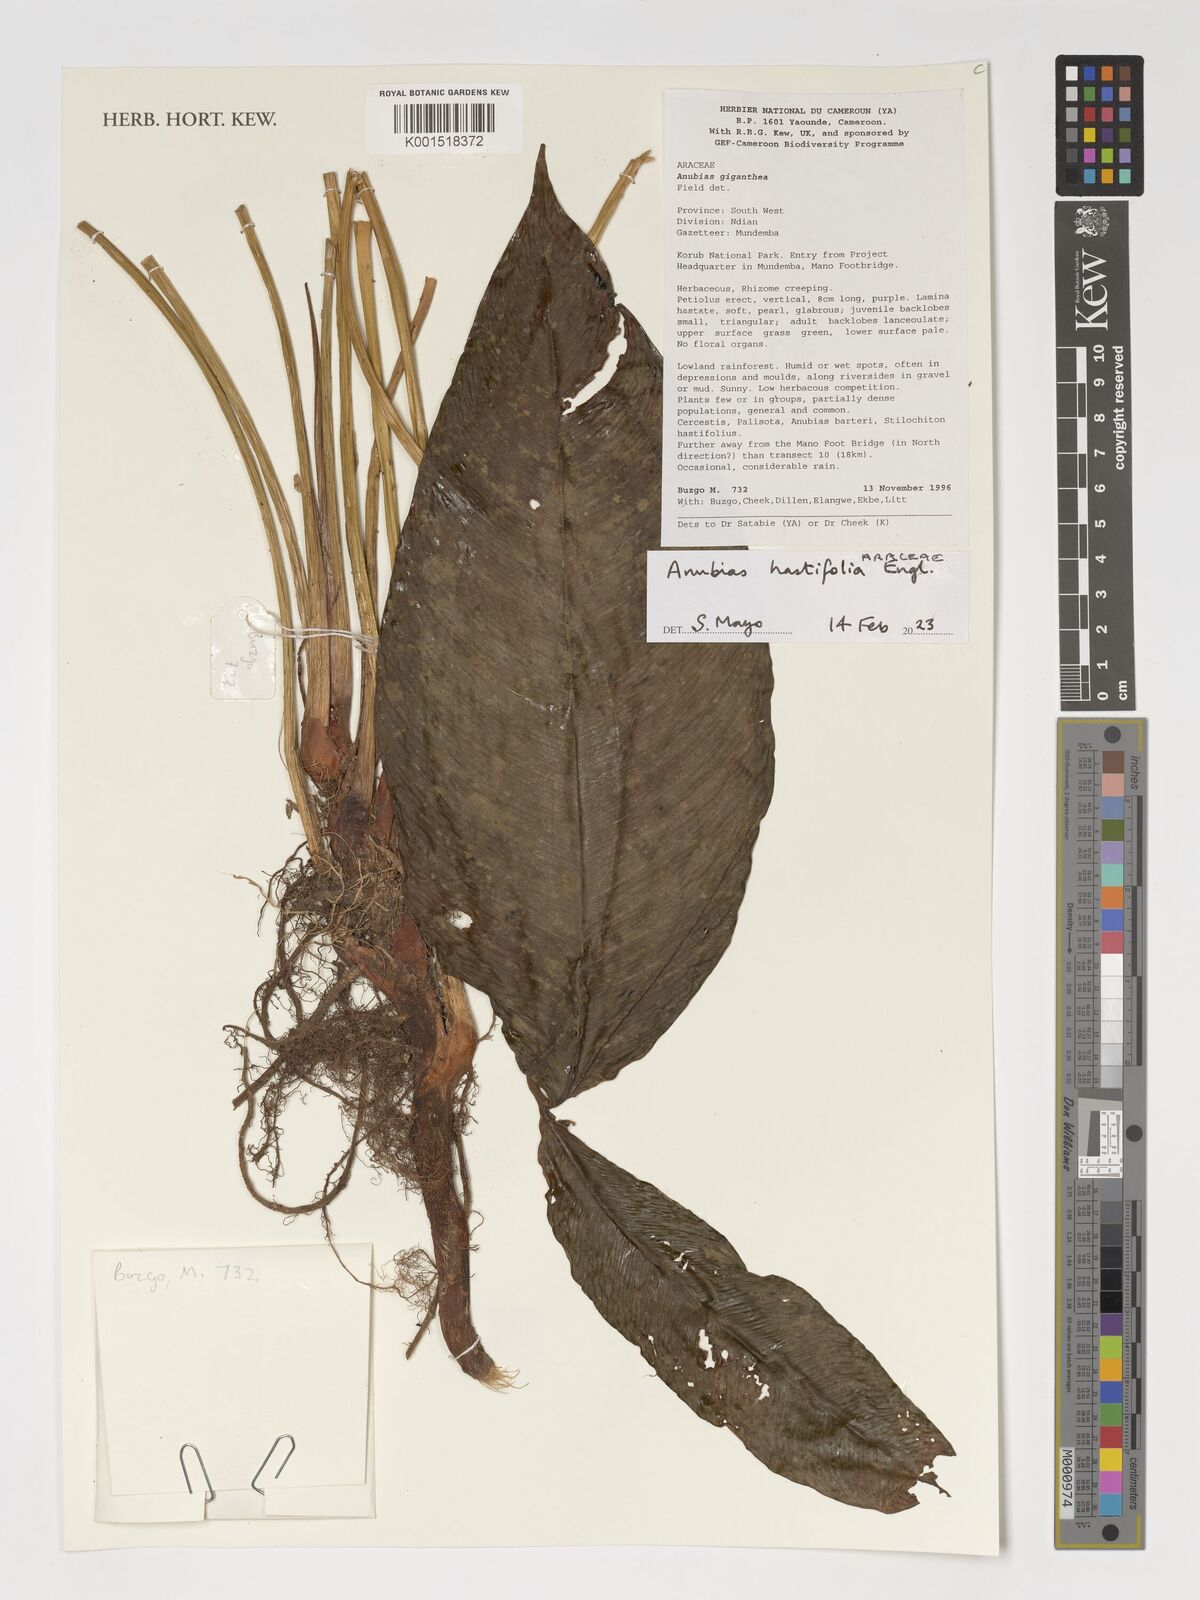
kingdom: Plantae
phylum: Tracheophyta
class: Liliopsida
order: Alismatales
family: Araceae
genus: Anubias
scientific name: Anubias hastifolia
